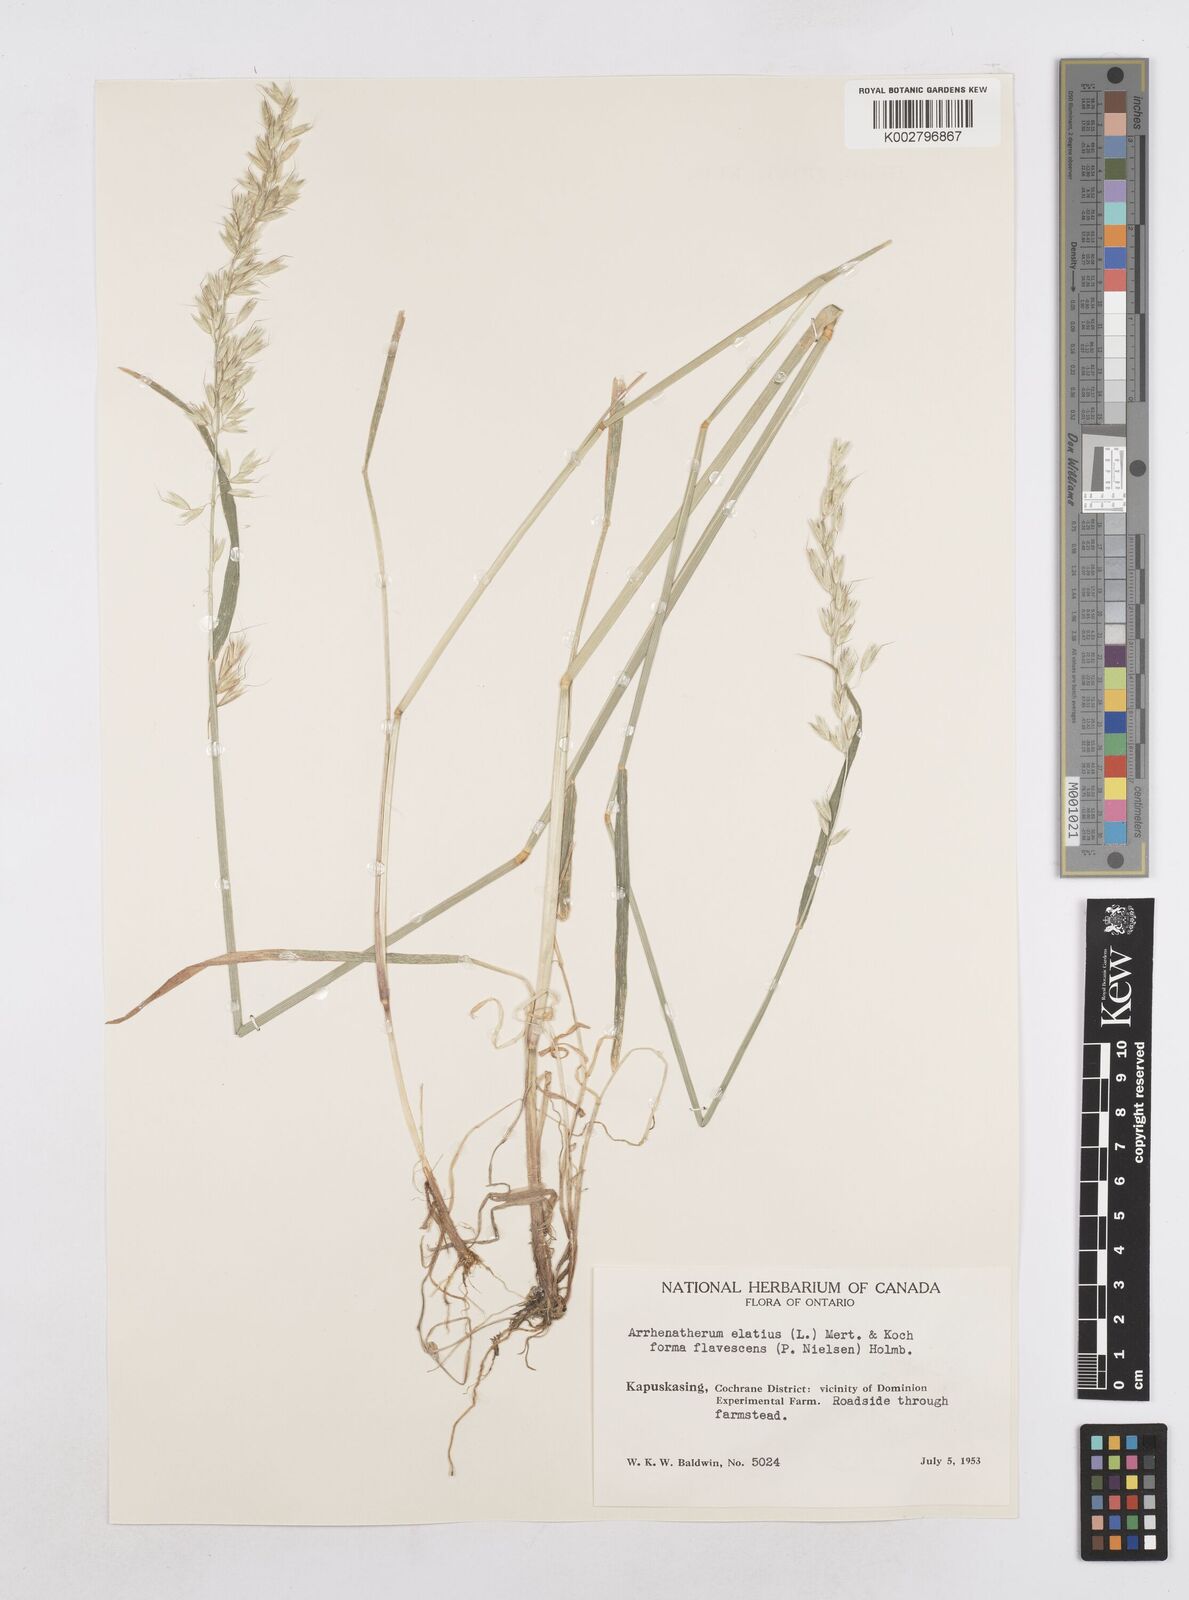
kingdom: Plantae
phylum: Tracheophyta
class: Liliopsida
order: Poales
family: Poaceae
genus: Arrhenatherum
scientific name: Arrhenatherum elatius
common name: Tall oatgrass
